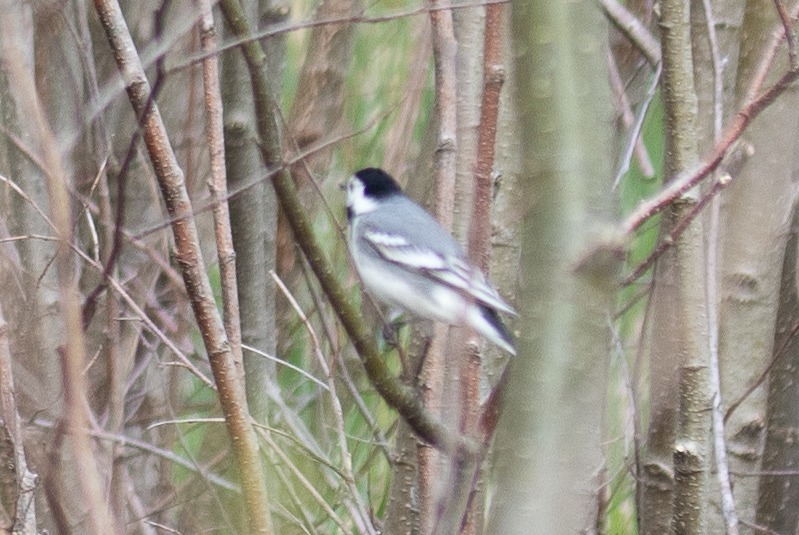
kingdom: Animalia
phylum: Chordata
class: Aves
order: Passeriformes
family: Motacillidae
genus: Motacilla
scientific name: Motacilla alba
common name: Hvid vipstjert
